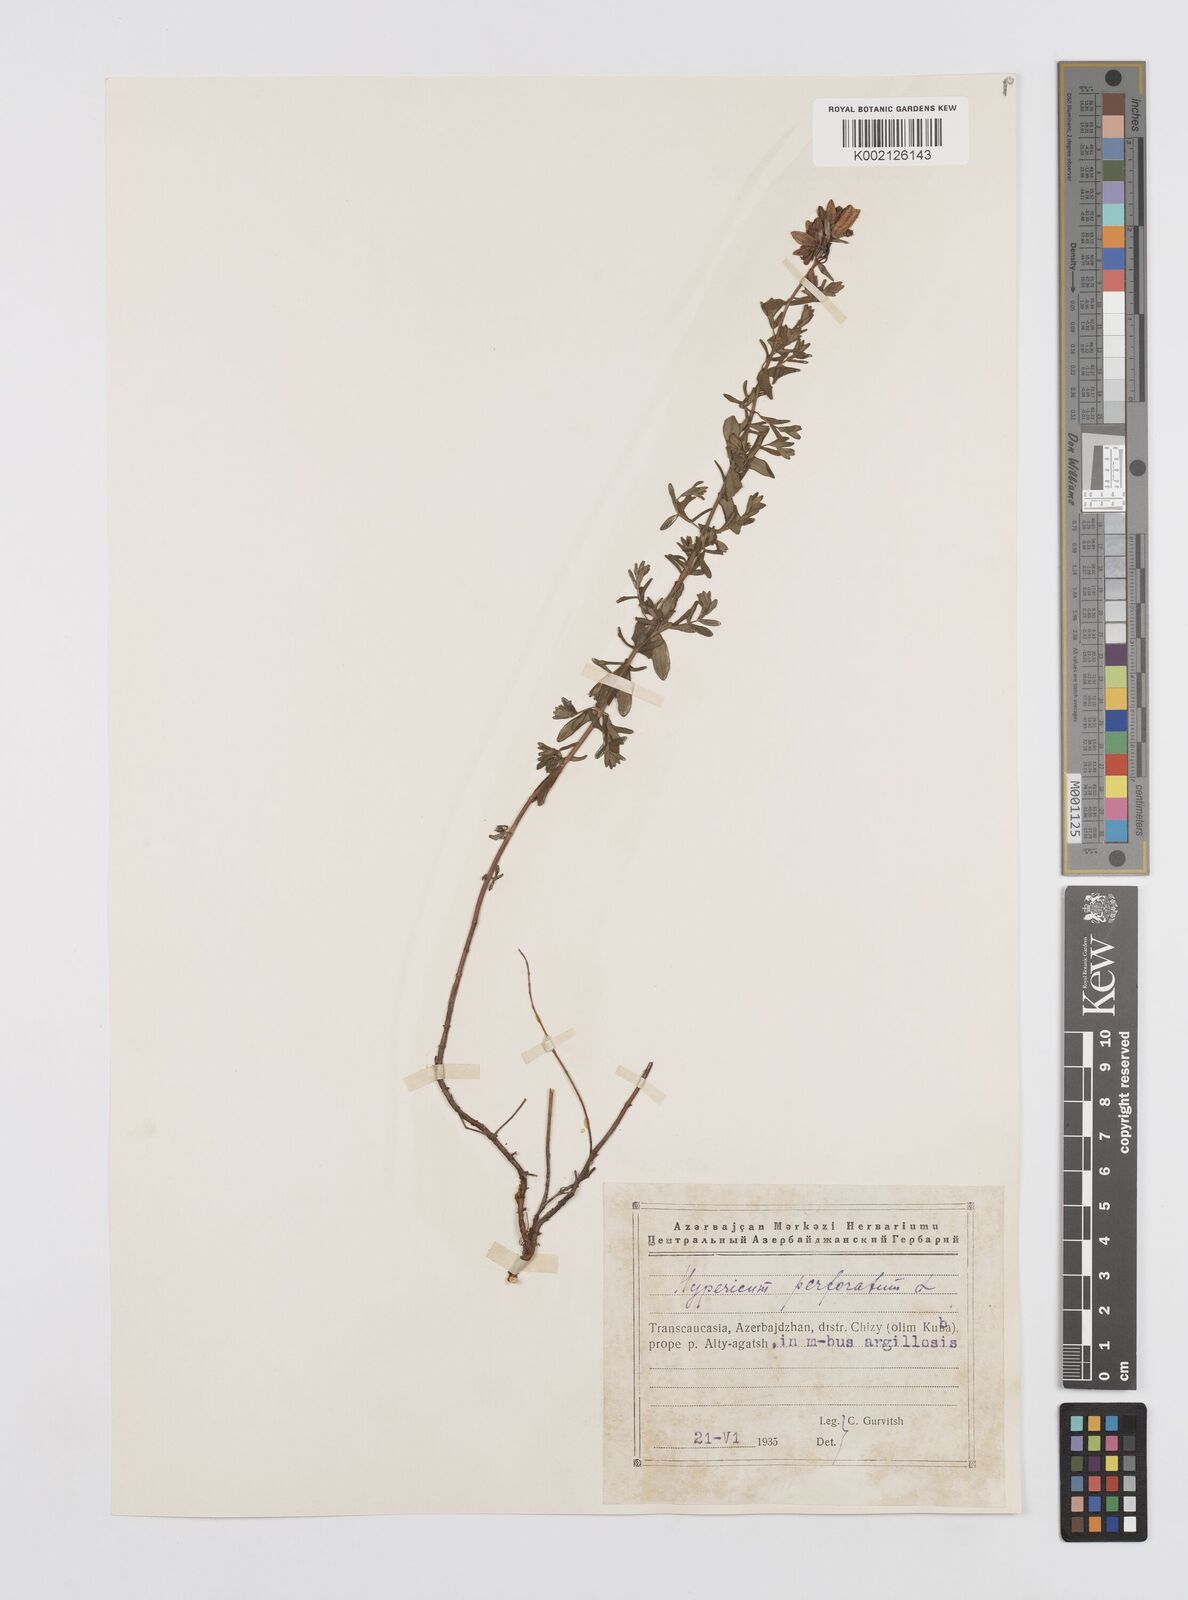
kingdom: Plantae
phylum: Tracheophyta
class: Magnoliopsida
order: Malpighiales
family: Hypericaceae
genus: Hypericum
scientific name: Hypericum perfoliatum
